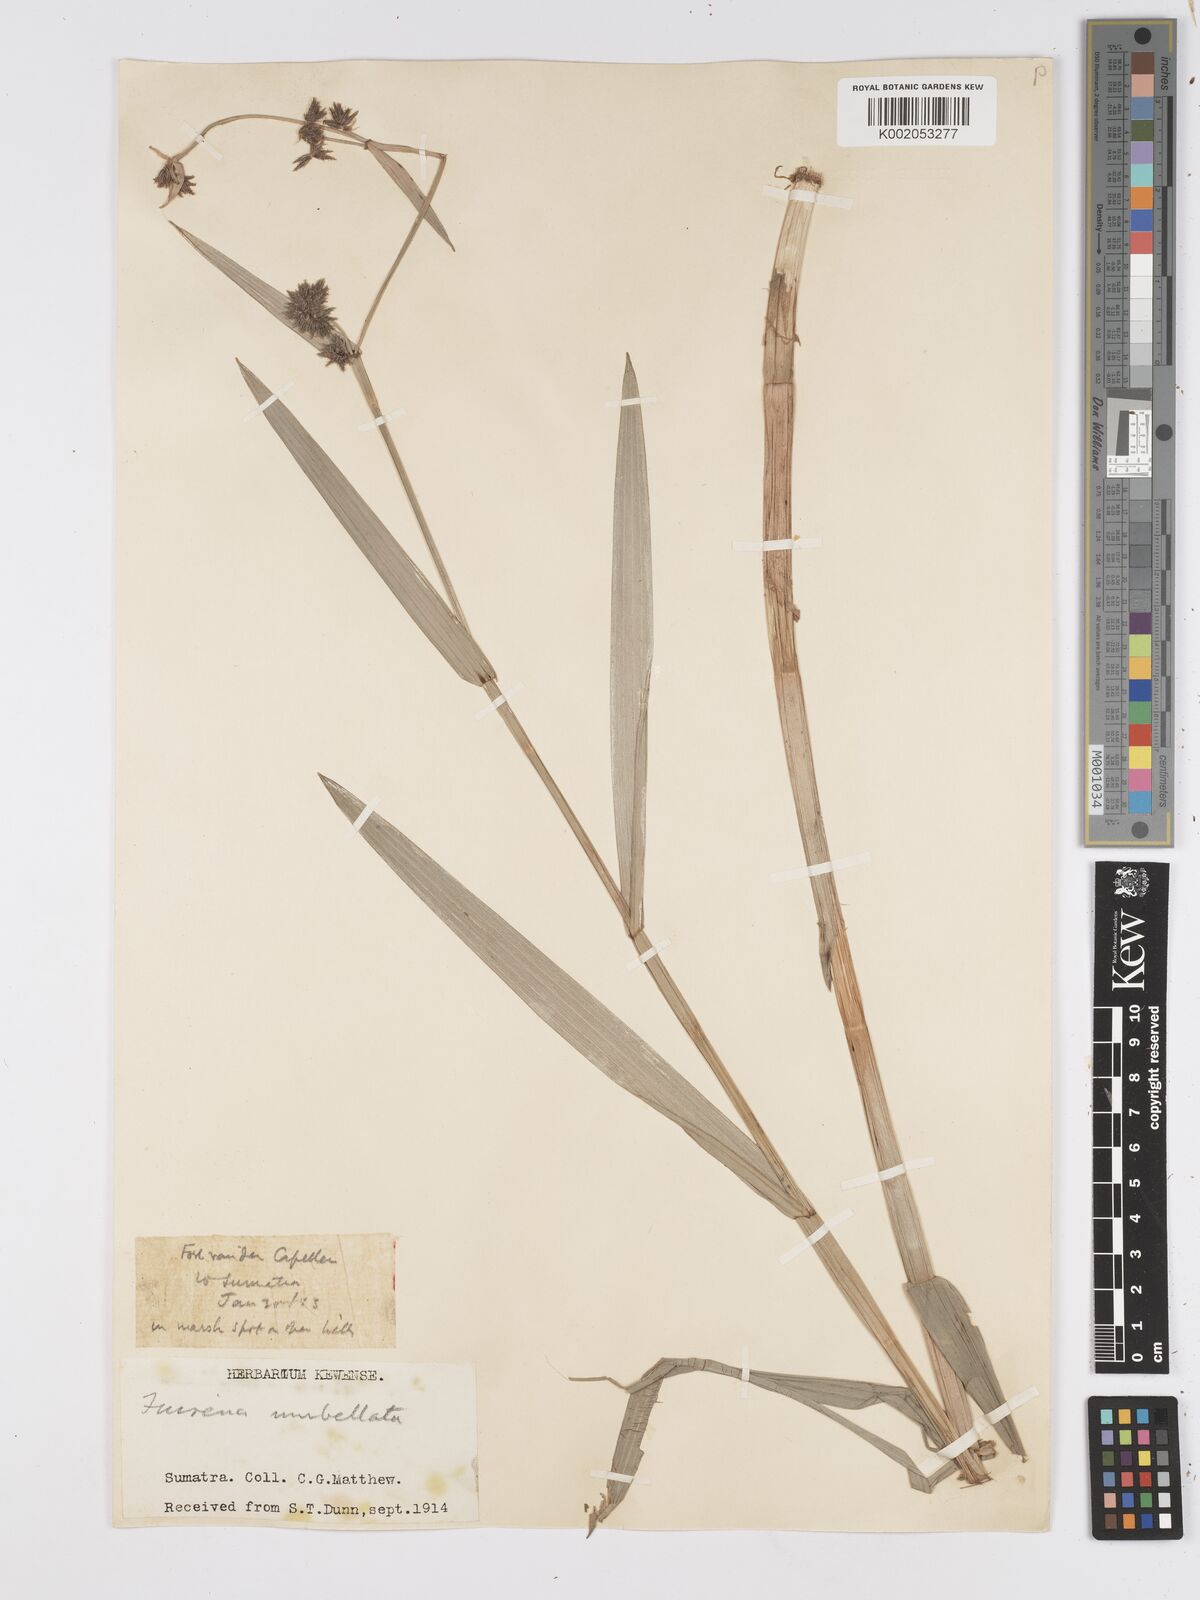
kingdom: Plantae
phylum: Tracheophyta
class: Liliopsida
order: Poales
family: Cyperaceae
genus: Fuirena
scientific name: Fuirena umbellata
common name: Yefen
